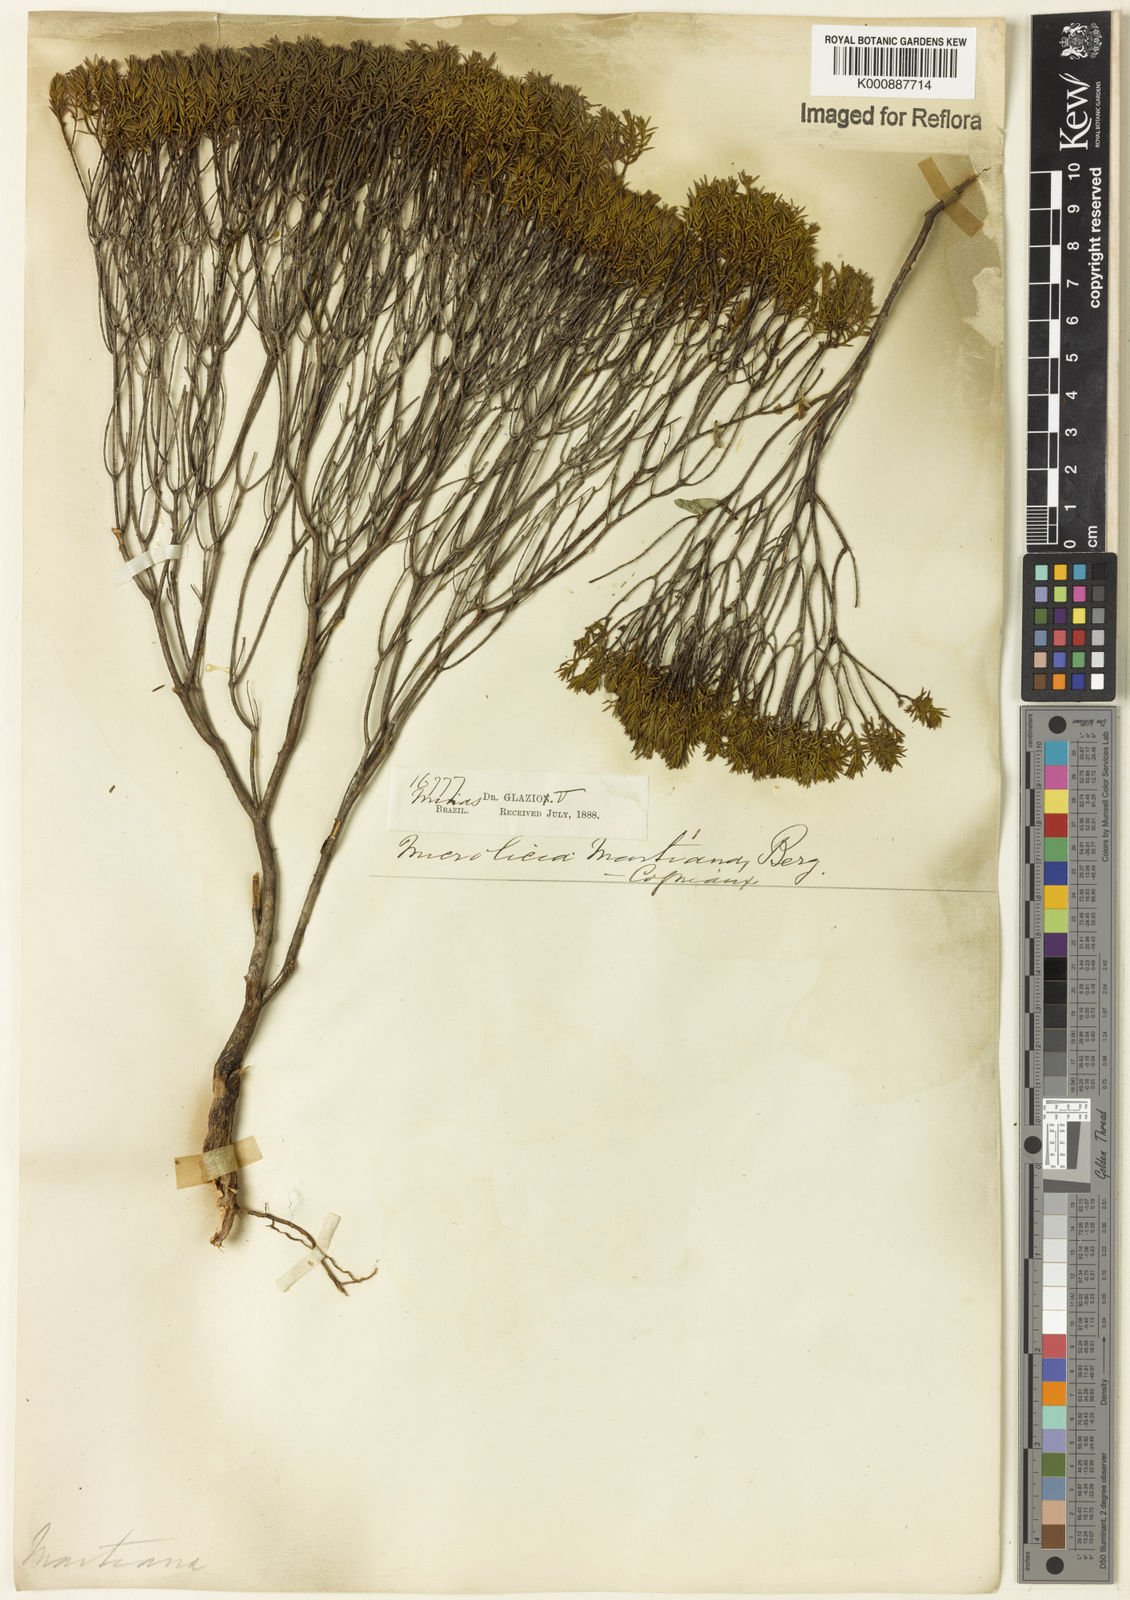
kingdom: Plantae
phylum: Tracheophyta
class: Magnoliopsida
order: Myrtales
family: Melastomataceae
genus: Microlicia
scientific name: Microlicia martiana
